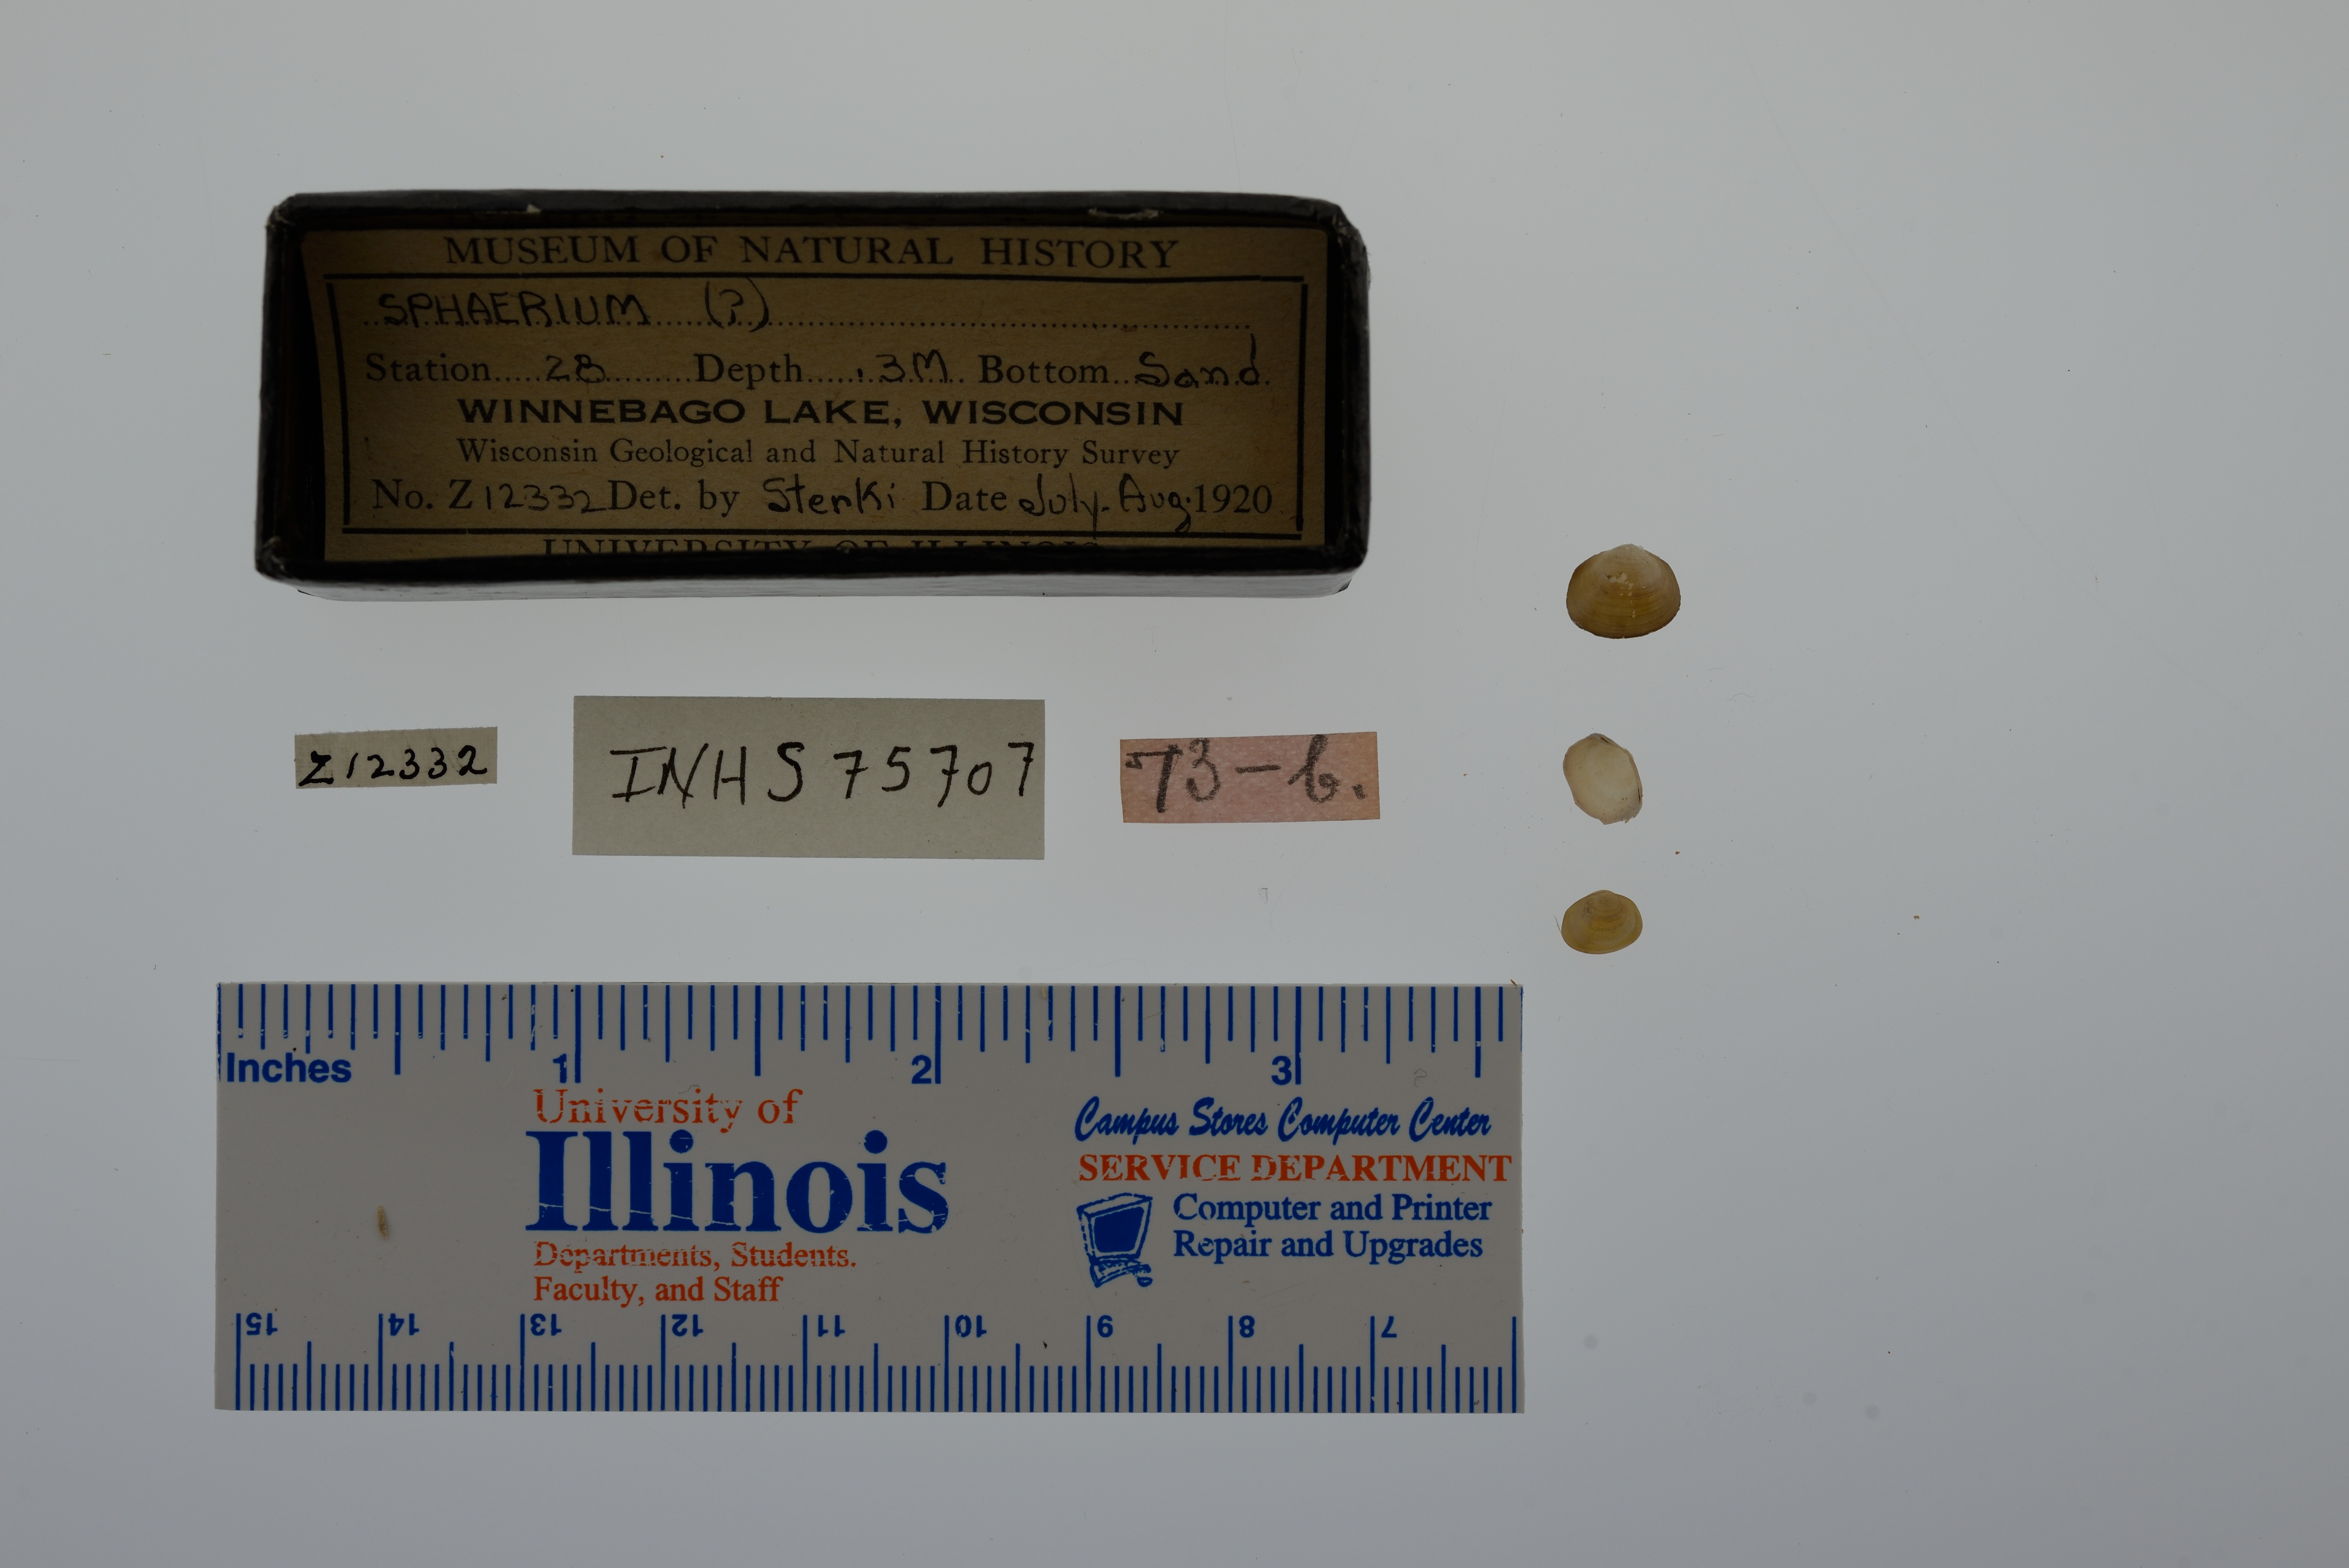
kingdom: Animalia
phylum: Mollusca
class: Bivalvia
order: Sphaeriida
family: Sphaeriidae
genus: Sphaerium
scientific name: Sphaerium
